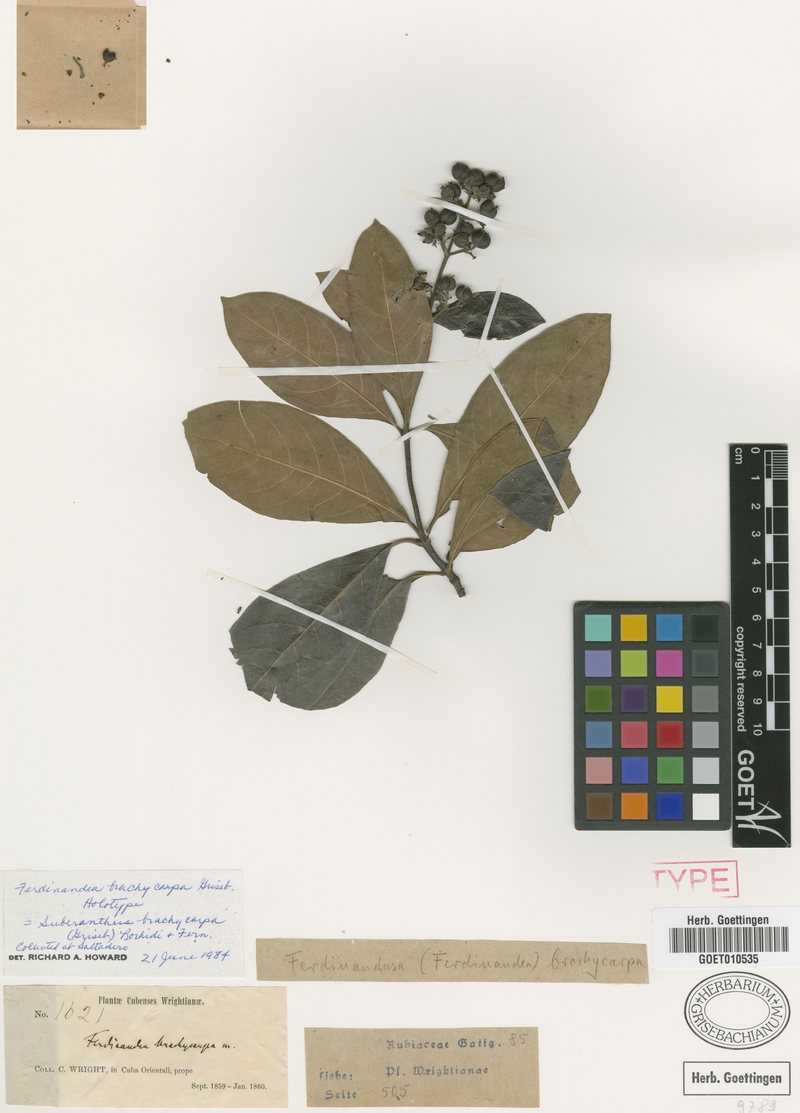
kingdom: Plantae
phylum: Tracheophyta
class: Magnoliopsida
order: Gentianales
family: Rubiaceae
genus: Suberanthus
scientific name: Suberanthus brachycarpus
